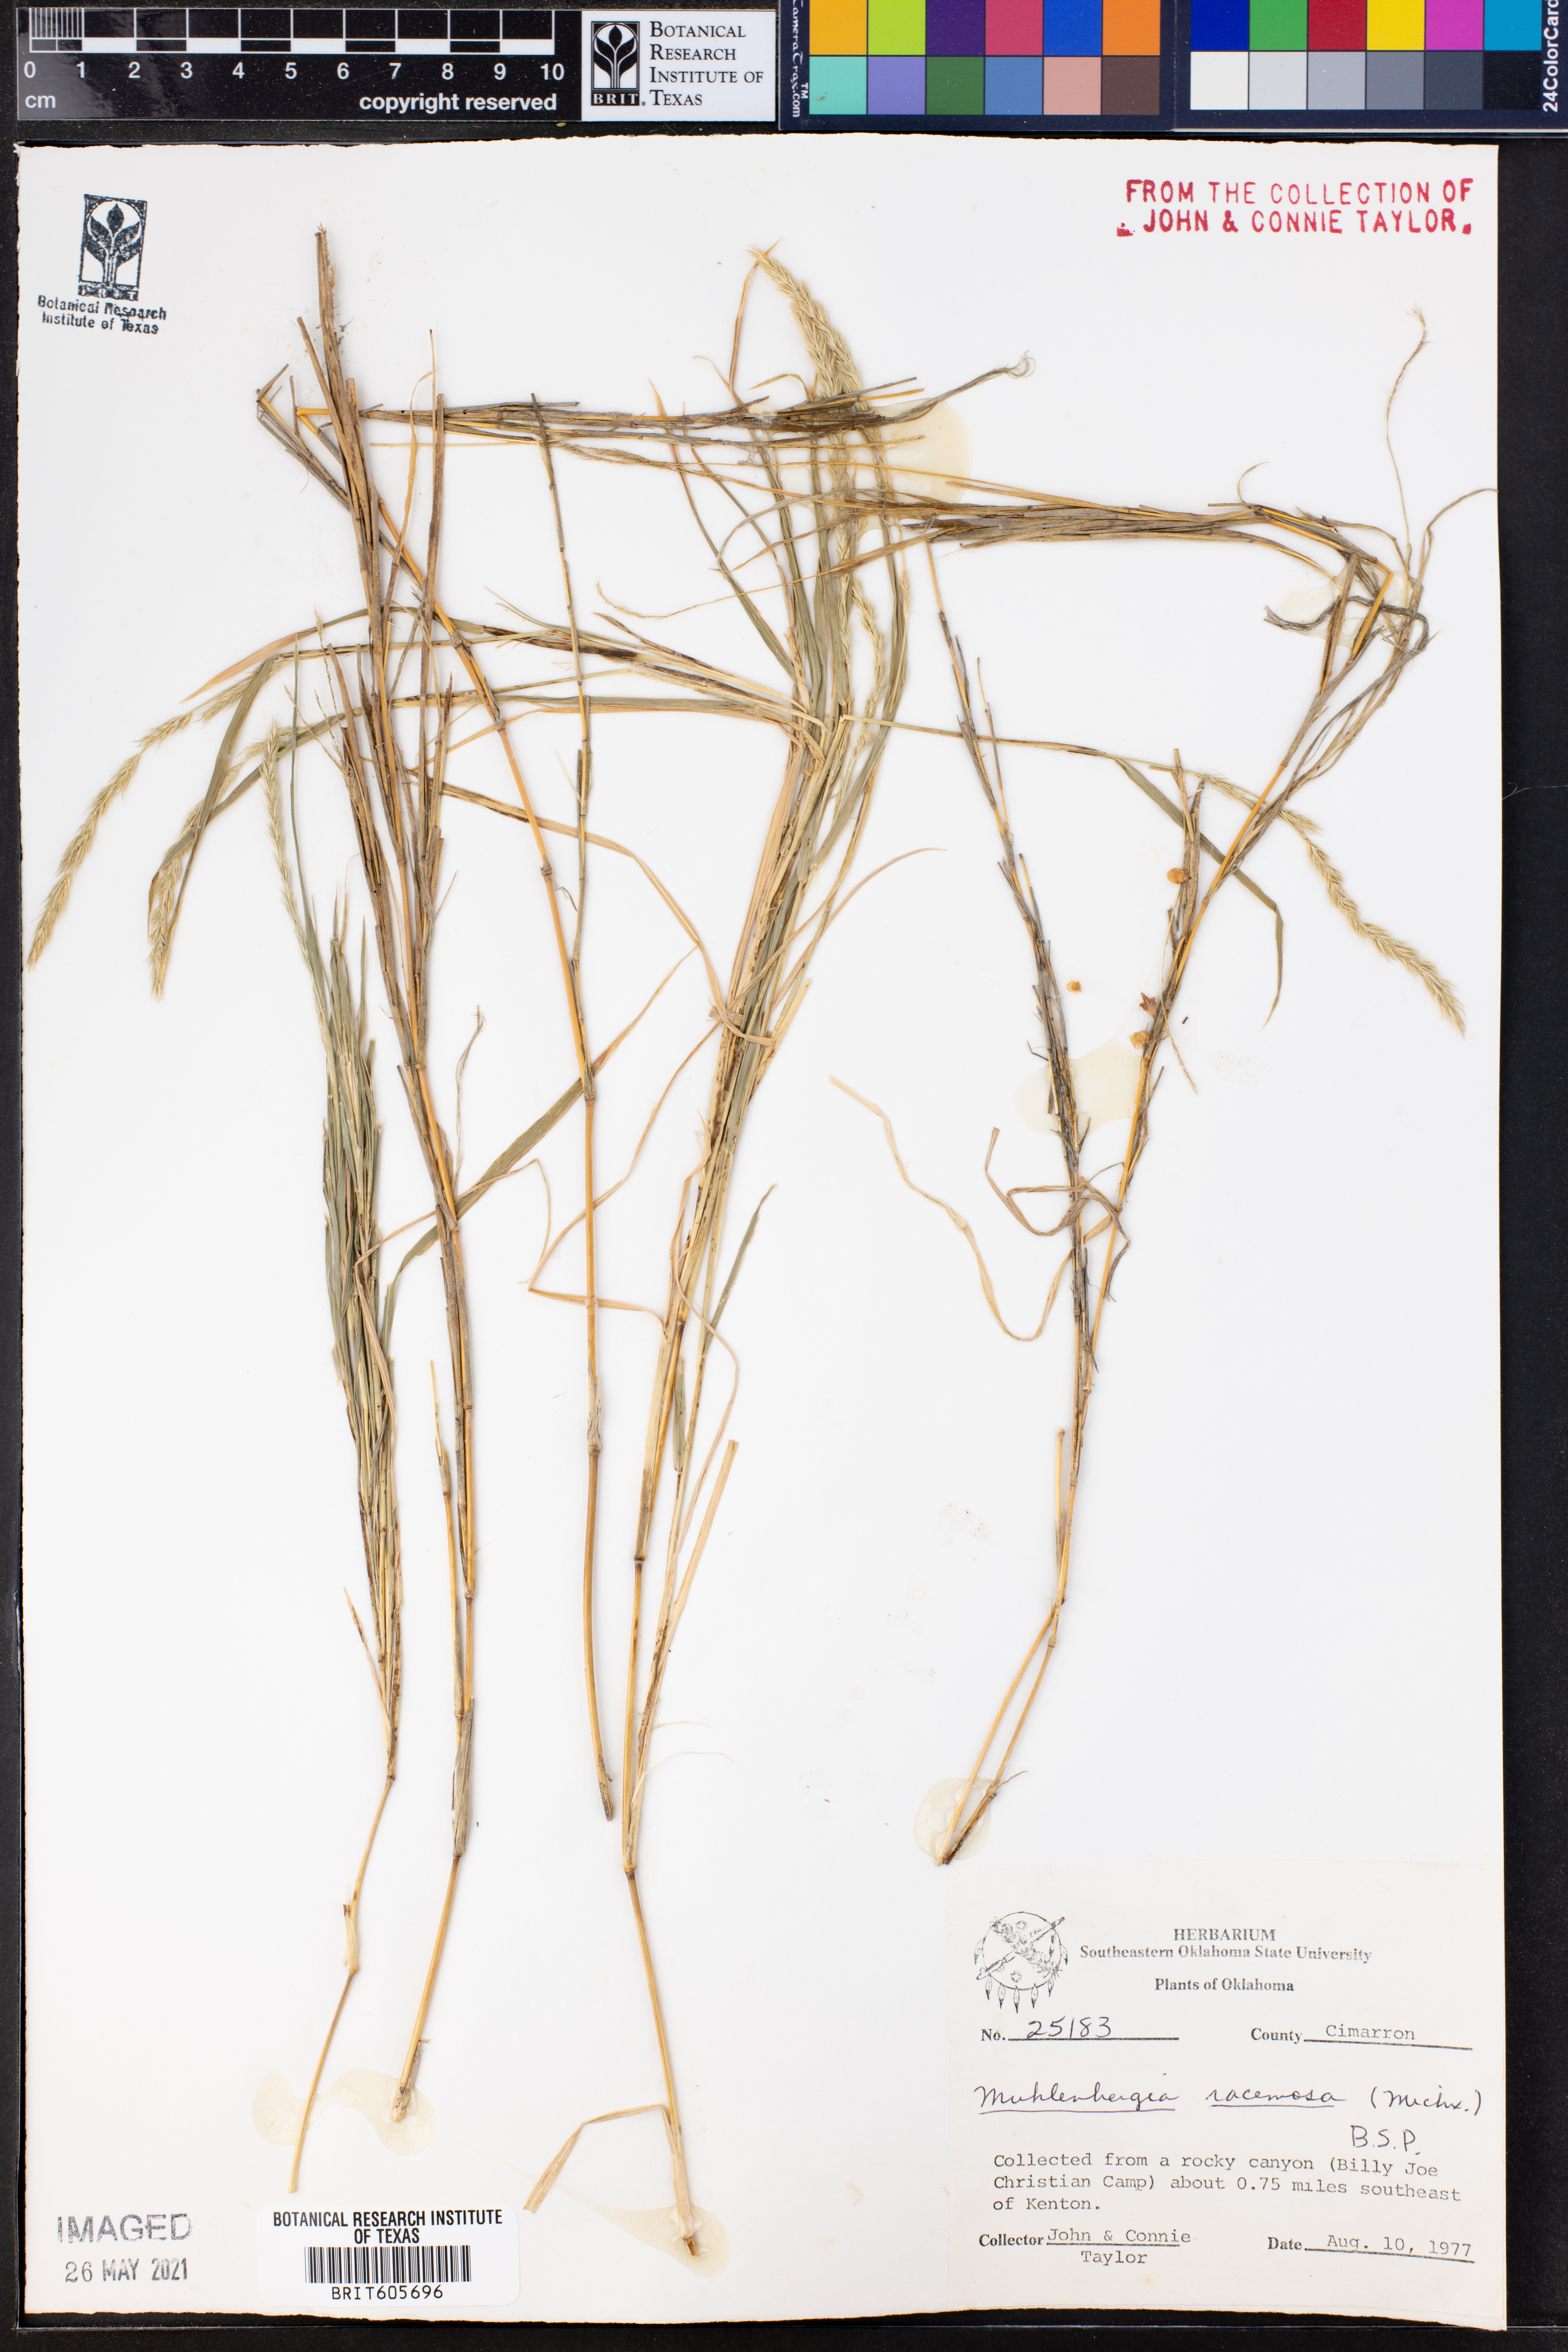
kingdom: Plantae
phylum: Tracheophyta
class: Liliopsida
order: Poales
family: Poaceae
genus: Muhlenbergia
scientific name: Muhlenbergia racemosa
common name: Green muhly
